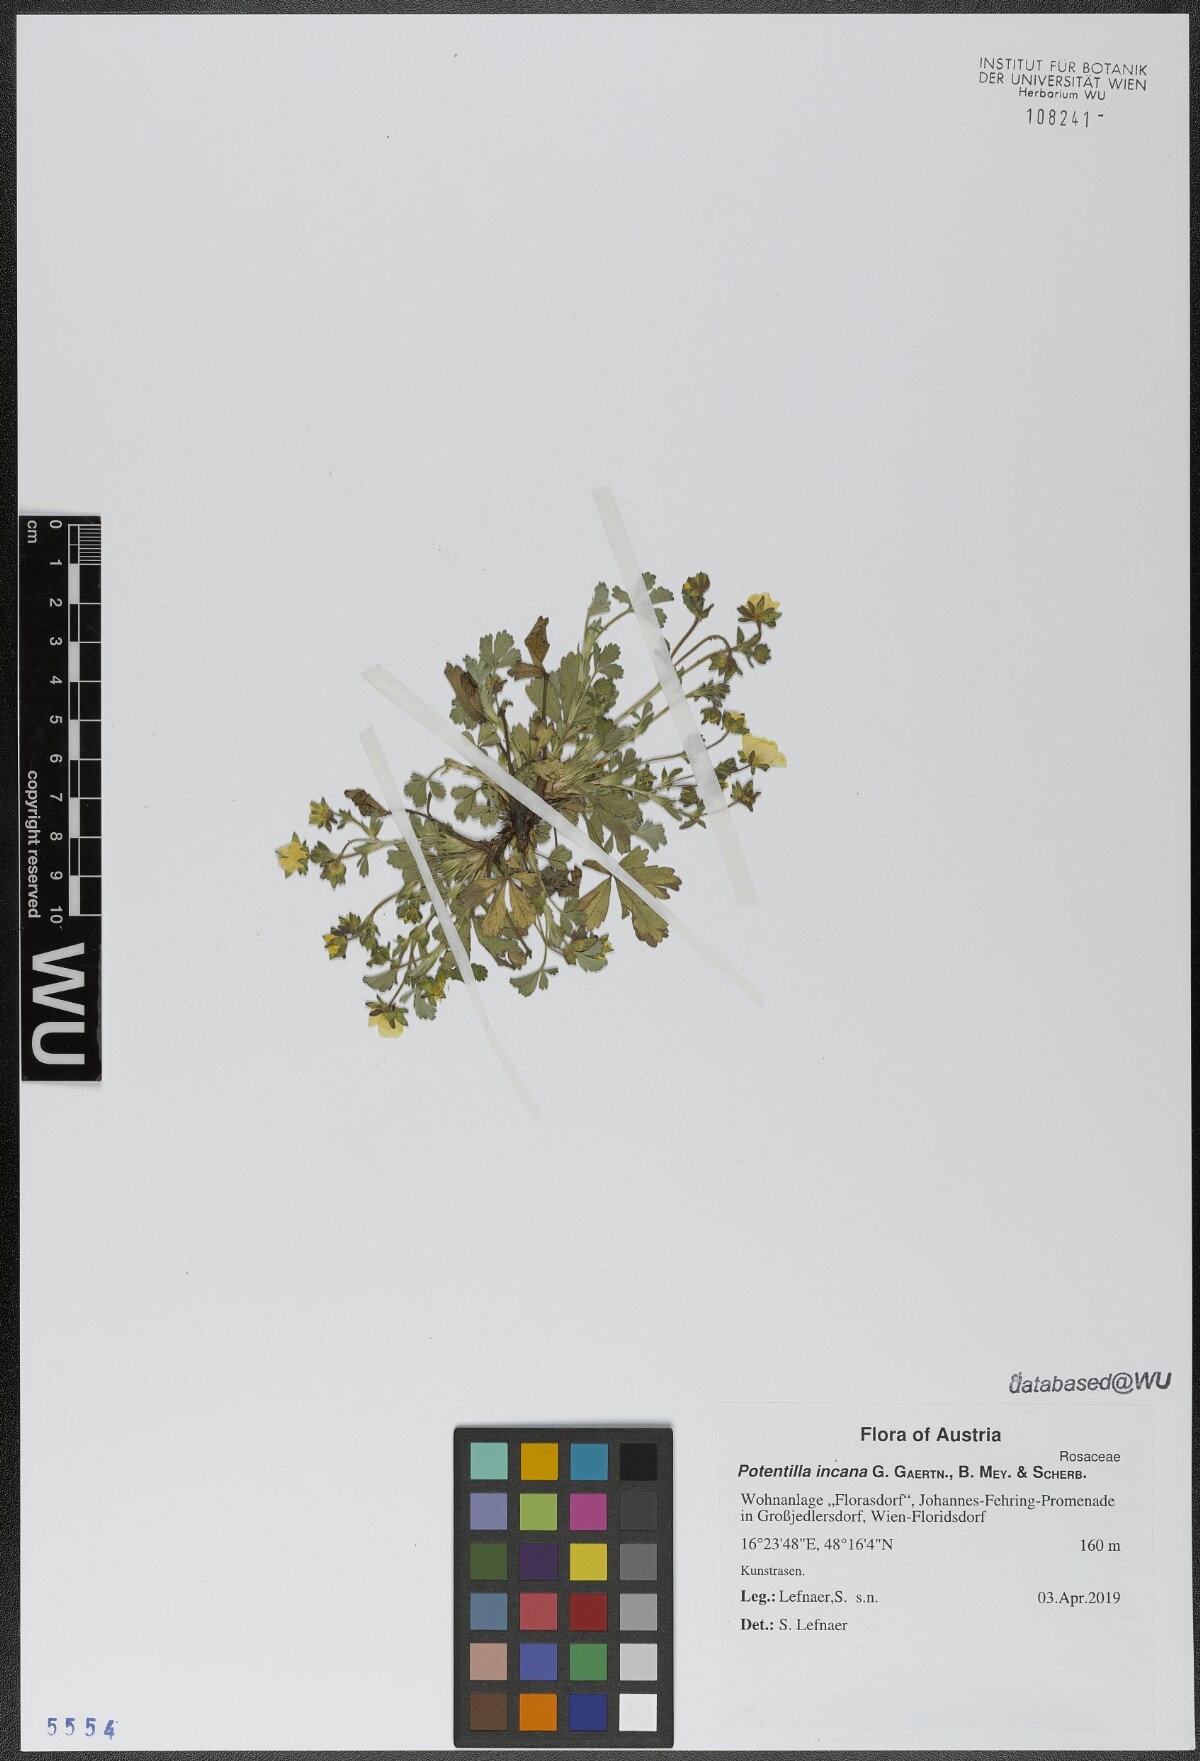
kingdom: Plantae
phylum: Tracheophyta
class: Magnoliopsida
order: Rosales
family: Rosaceae
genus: Potentilla
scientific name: Potentilla cinerea
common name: Ashy cinquefoil
